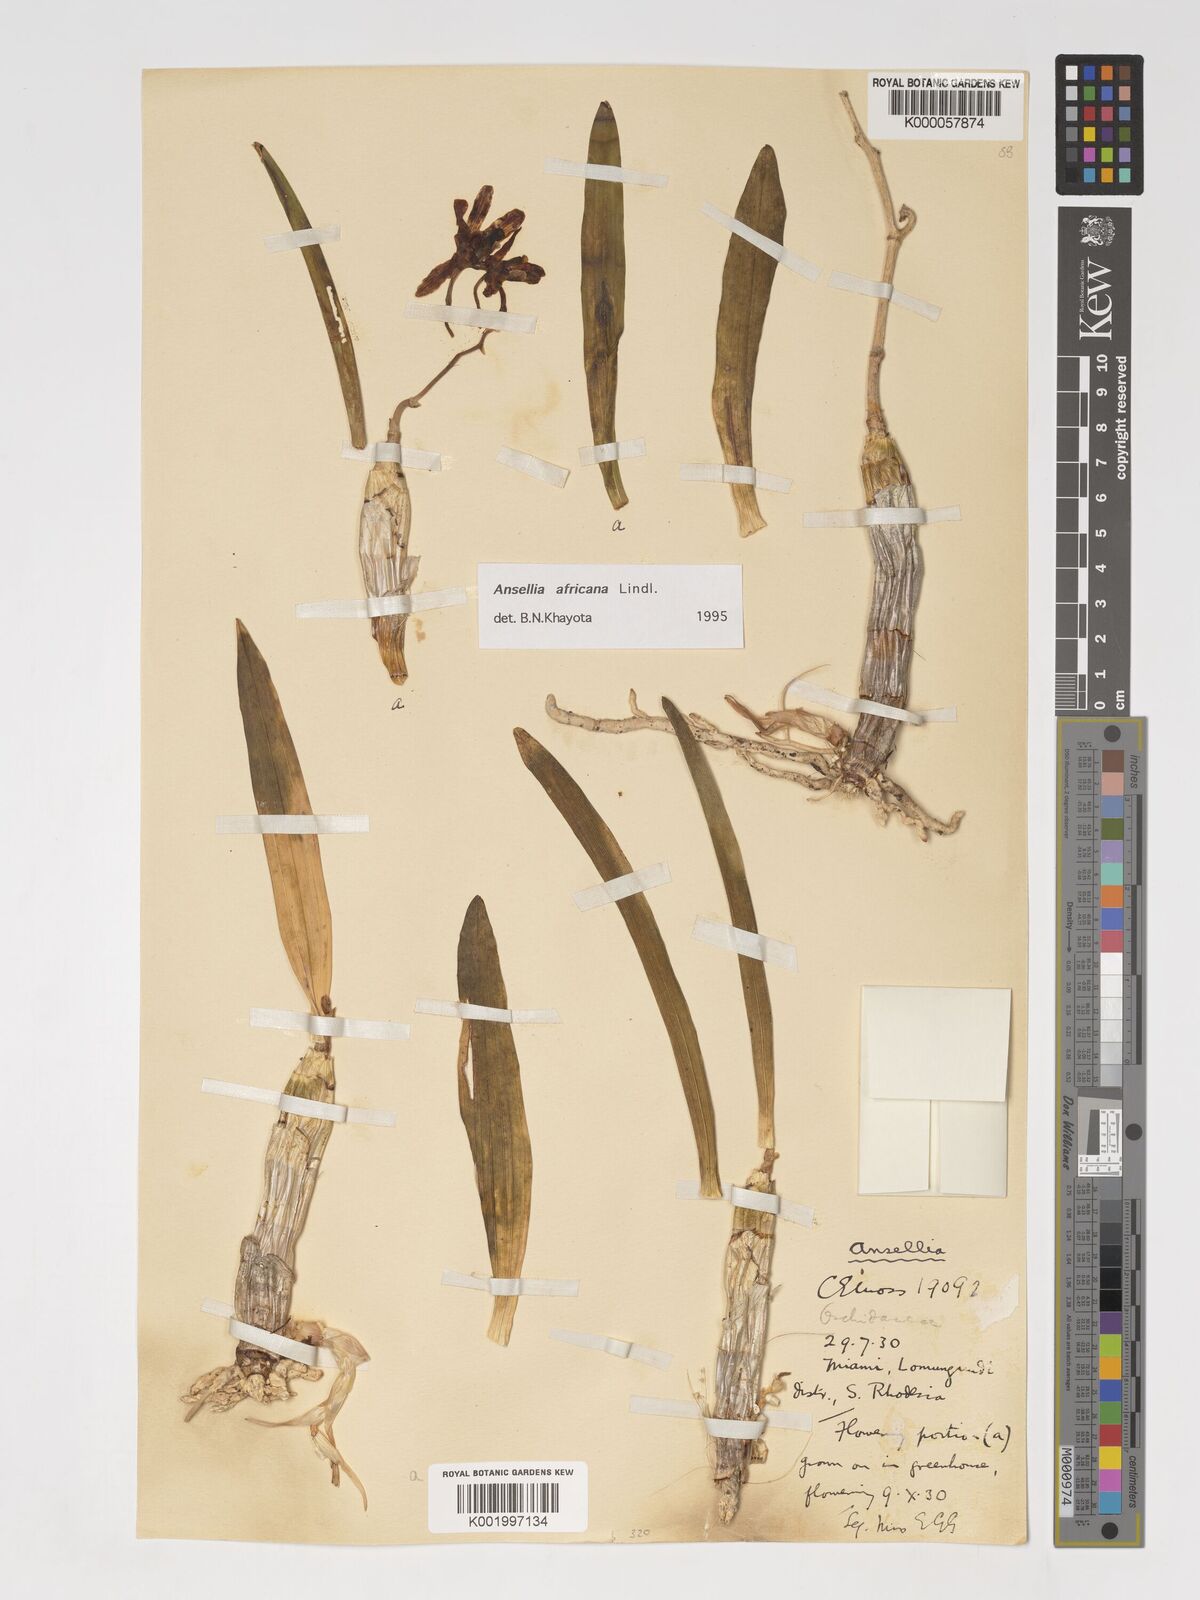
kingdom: Plantae
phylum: Tracheophyta
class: Liliopsida
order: Asparagales
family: Orchidaceae
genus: Ansellia
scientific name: Ansellia africana
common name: African ansellia
